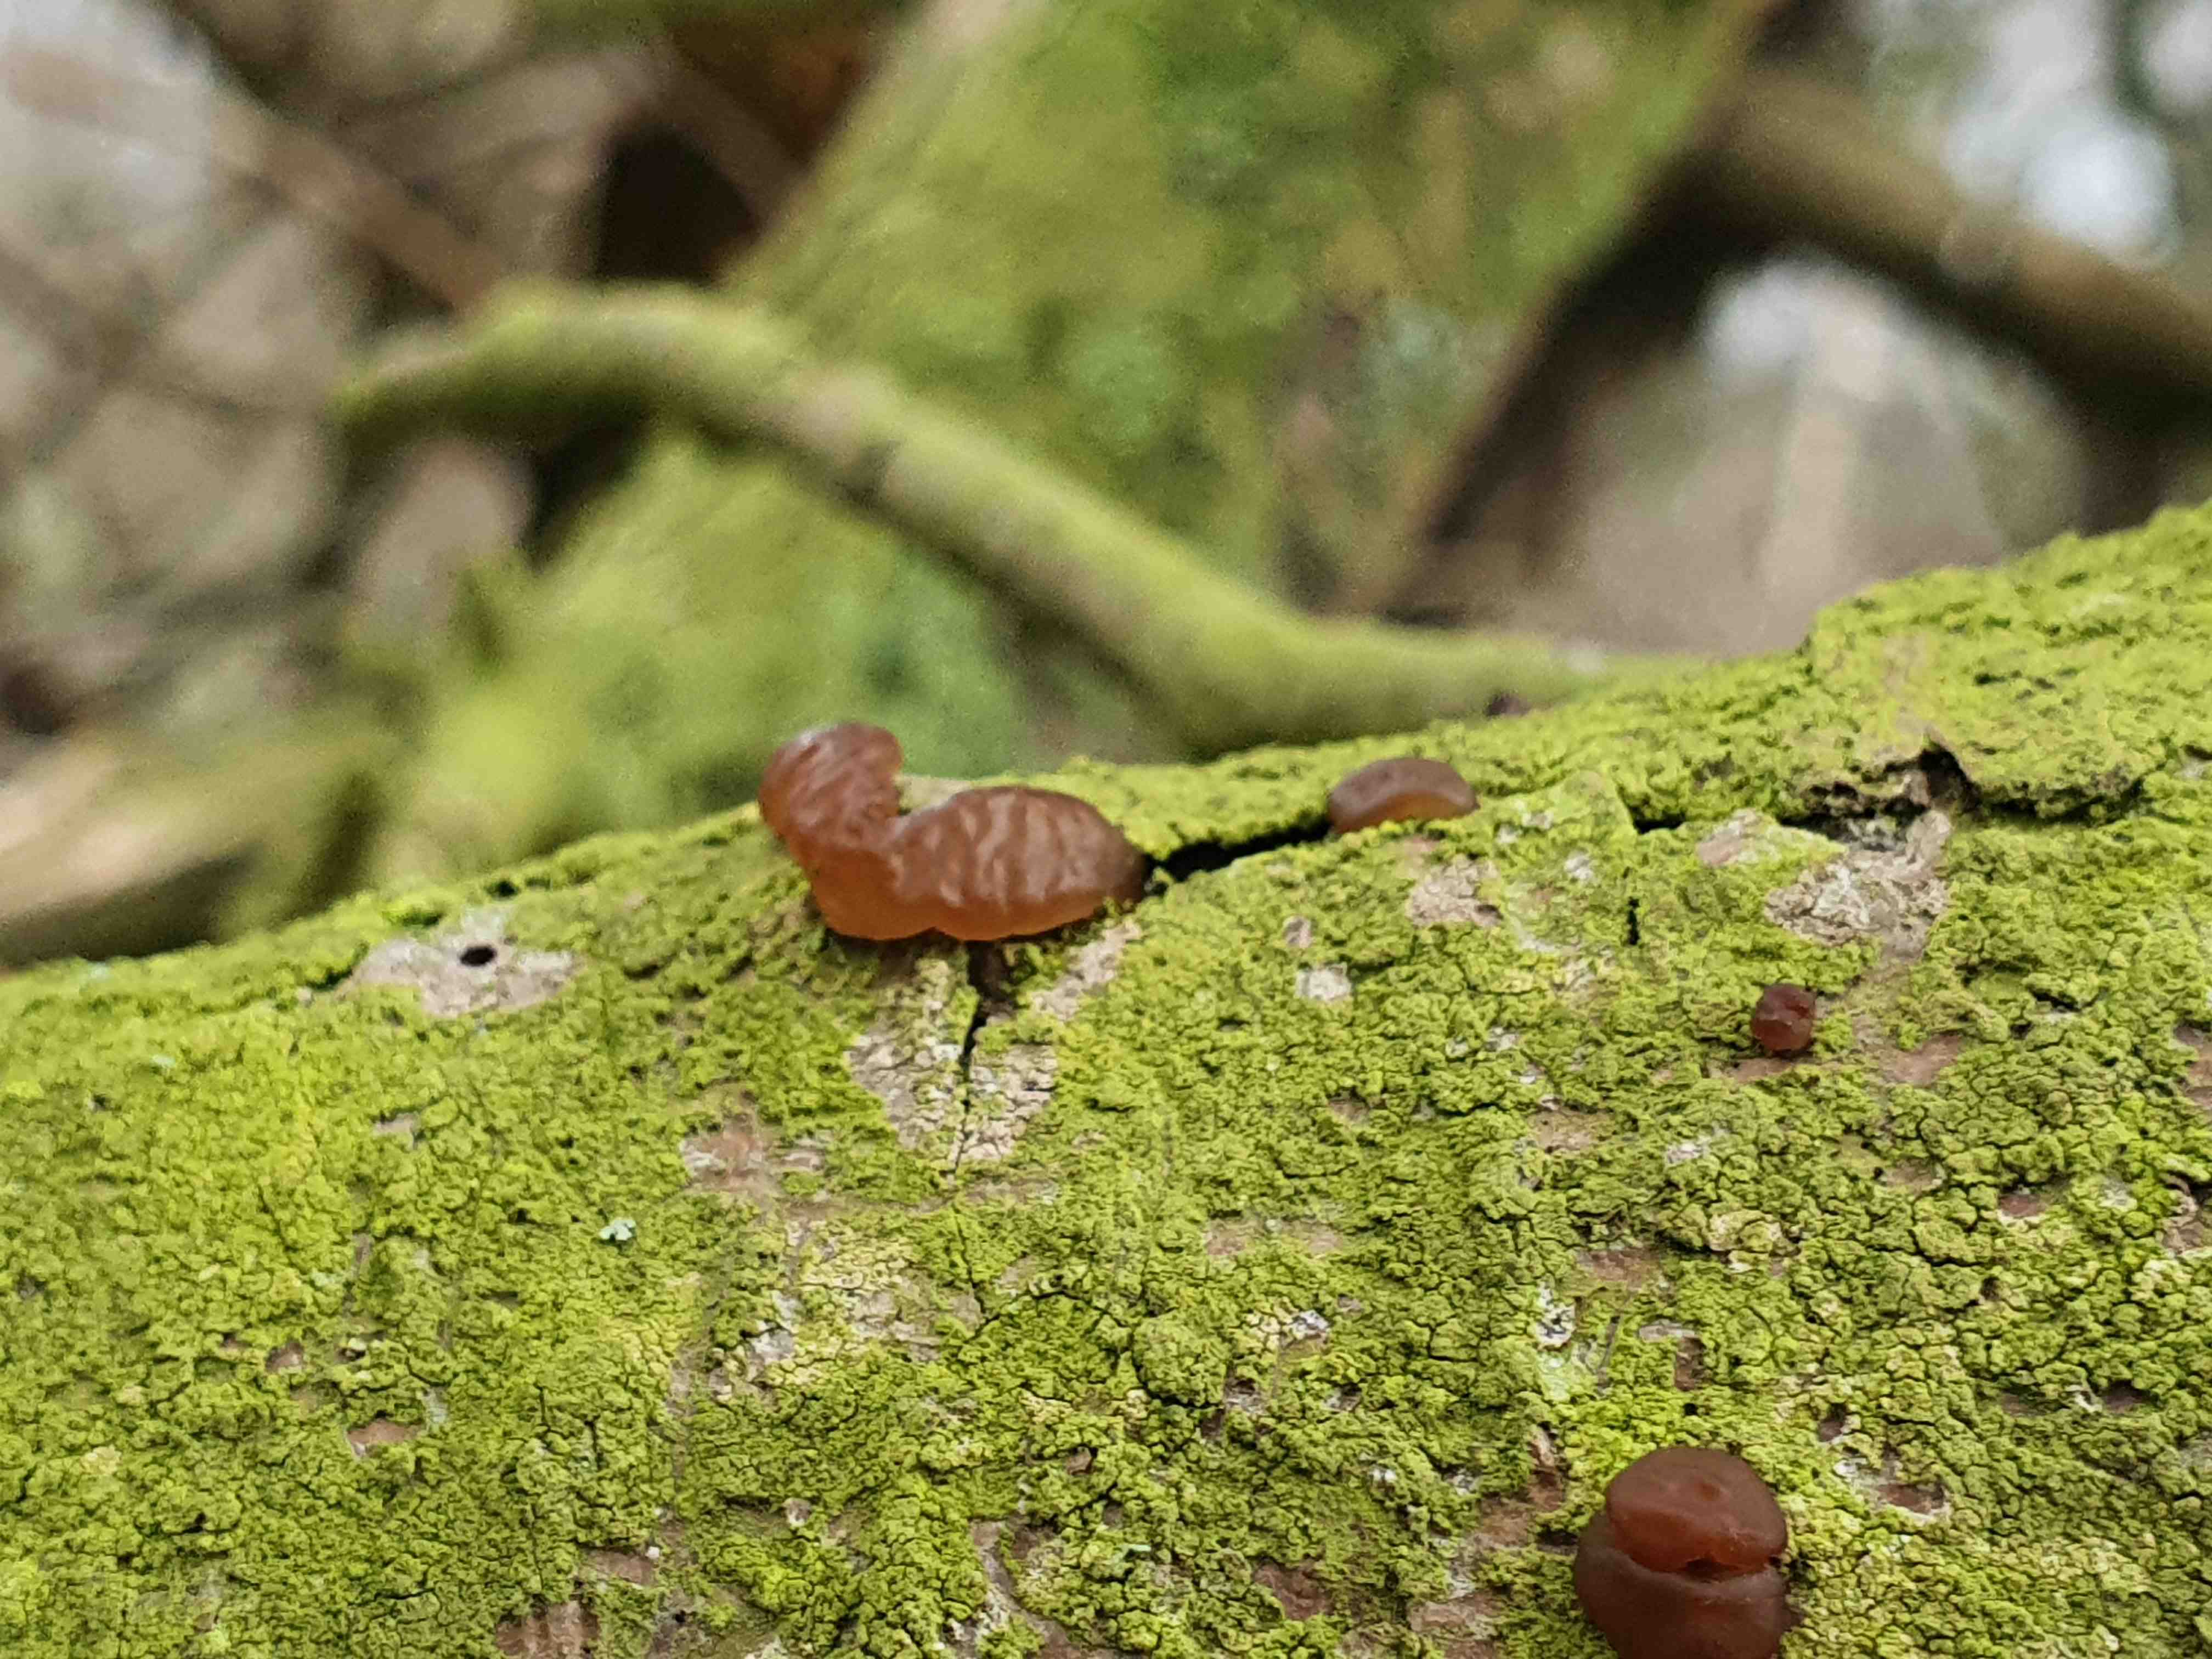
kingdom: Fungi
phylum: Basidiomycota
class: Agaricomycetes
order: Auriculariales
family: Auriculariaceae
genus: Exidia
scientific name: Exidia saccharina
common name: kandis-bævretop
